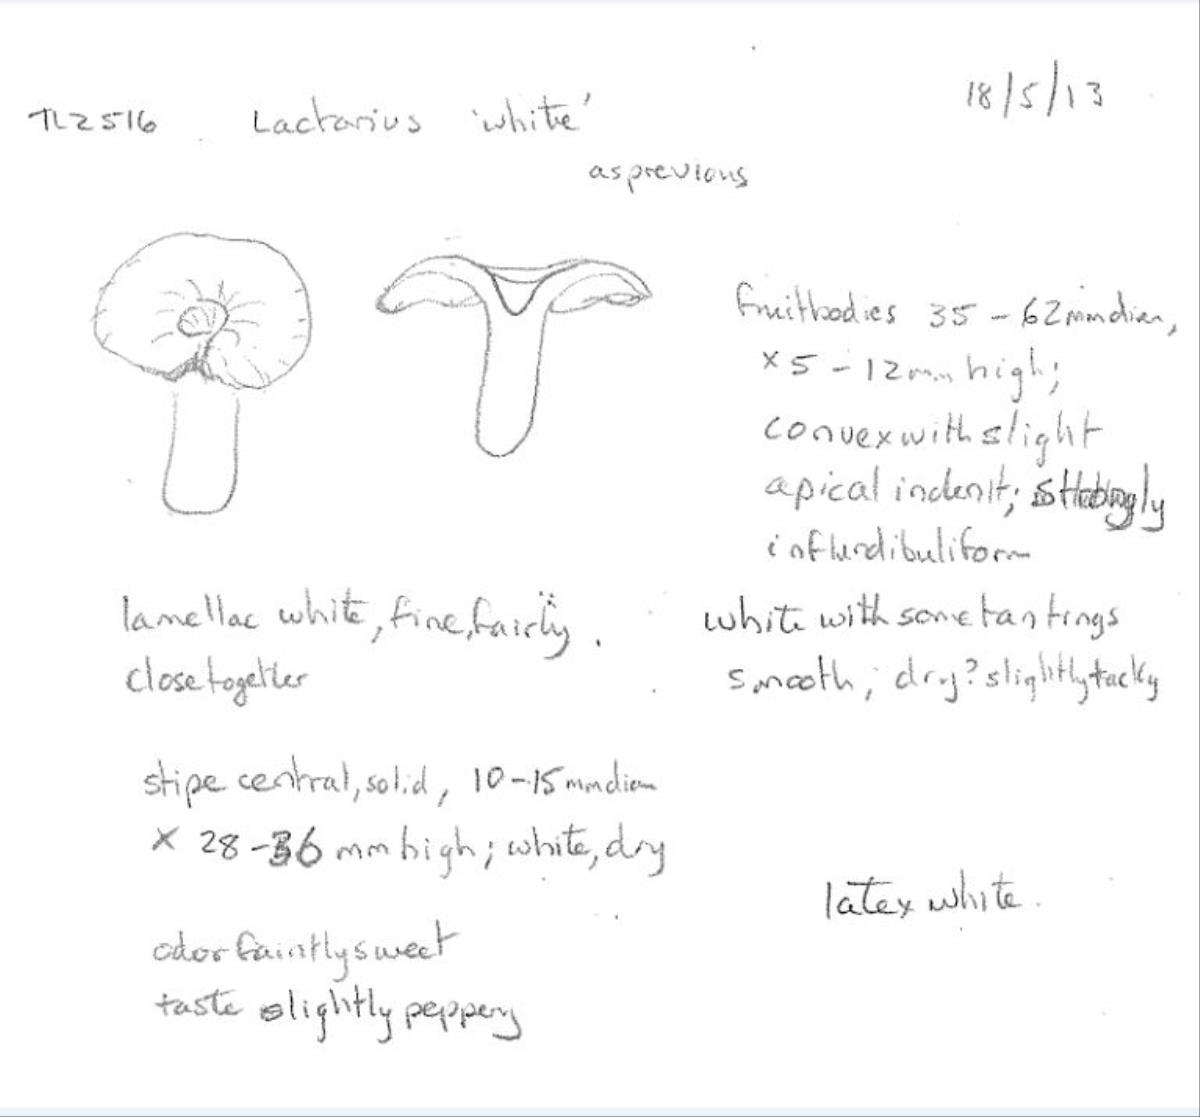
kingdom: Fungi
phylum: Basidiomycota
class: Agaricomycetes
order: Russulales
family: Russulaceae
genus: Lactarius
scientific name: Lactarius
